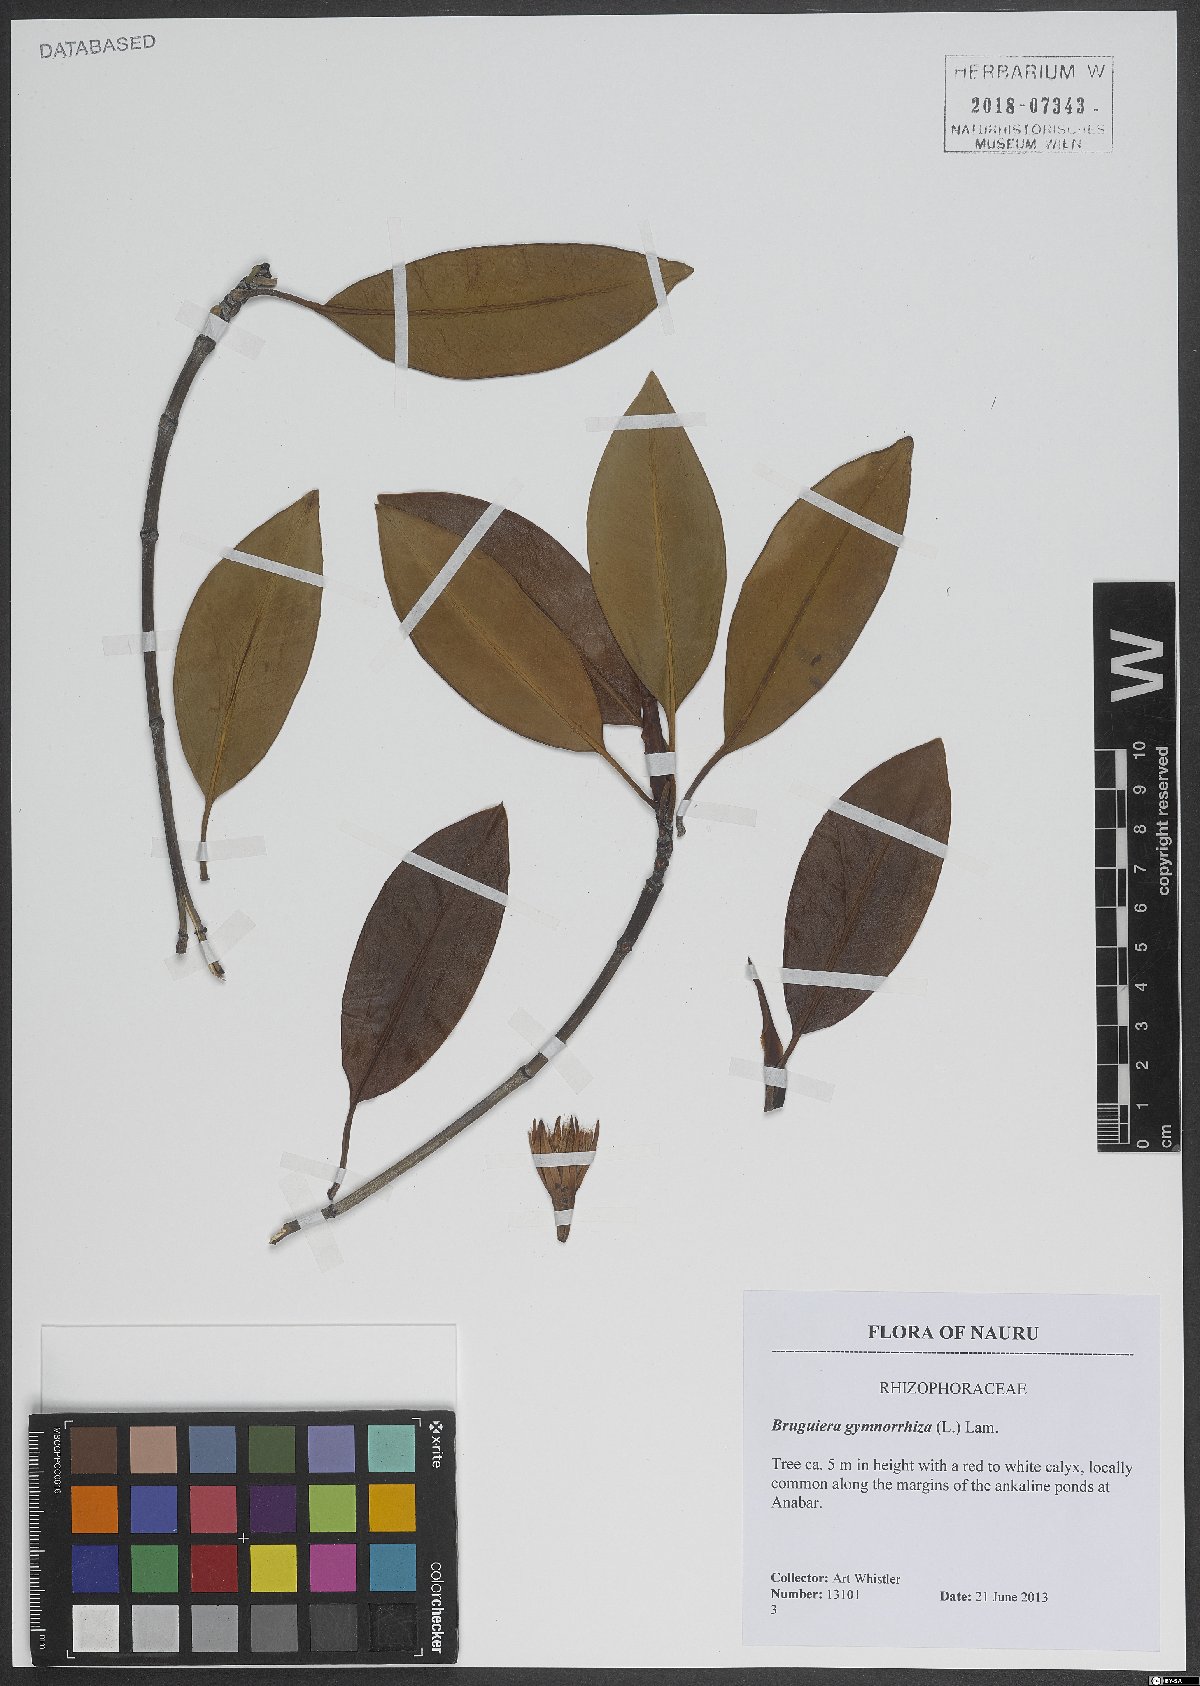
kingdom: Plantae
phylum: Tracheophyta
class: Magnoliopsida
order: Malpighiales
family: Rhizophoraceae
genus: Bruguiera
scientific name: Bruguiera gymnorhiza
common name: Oriental mangrove
